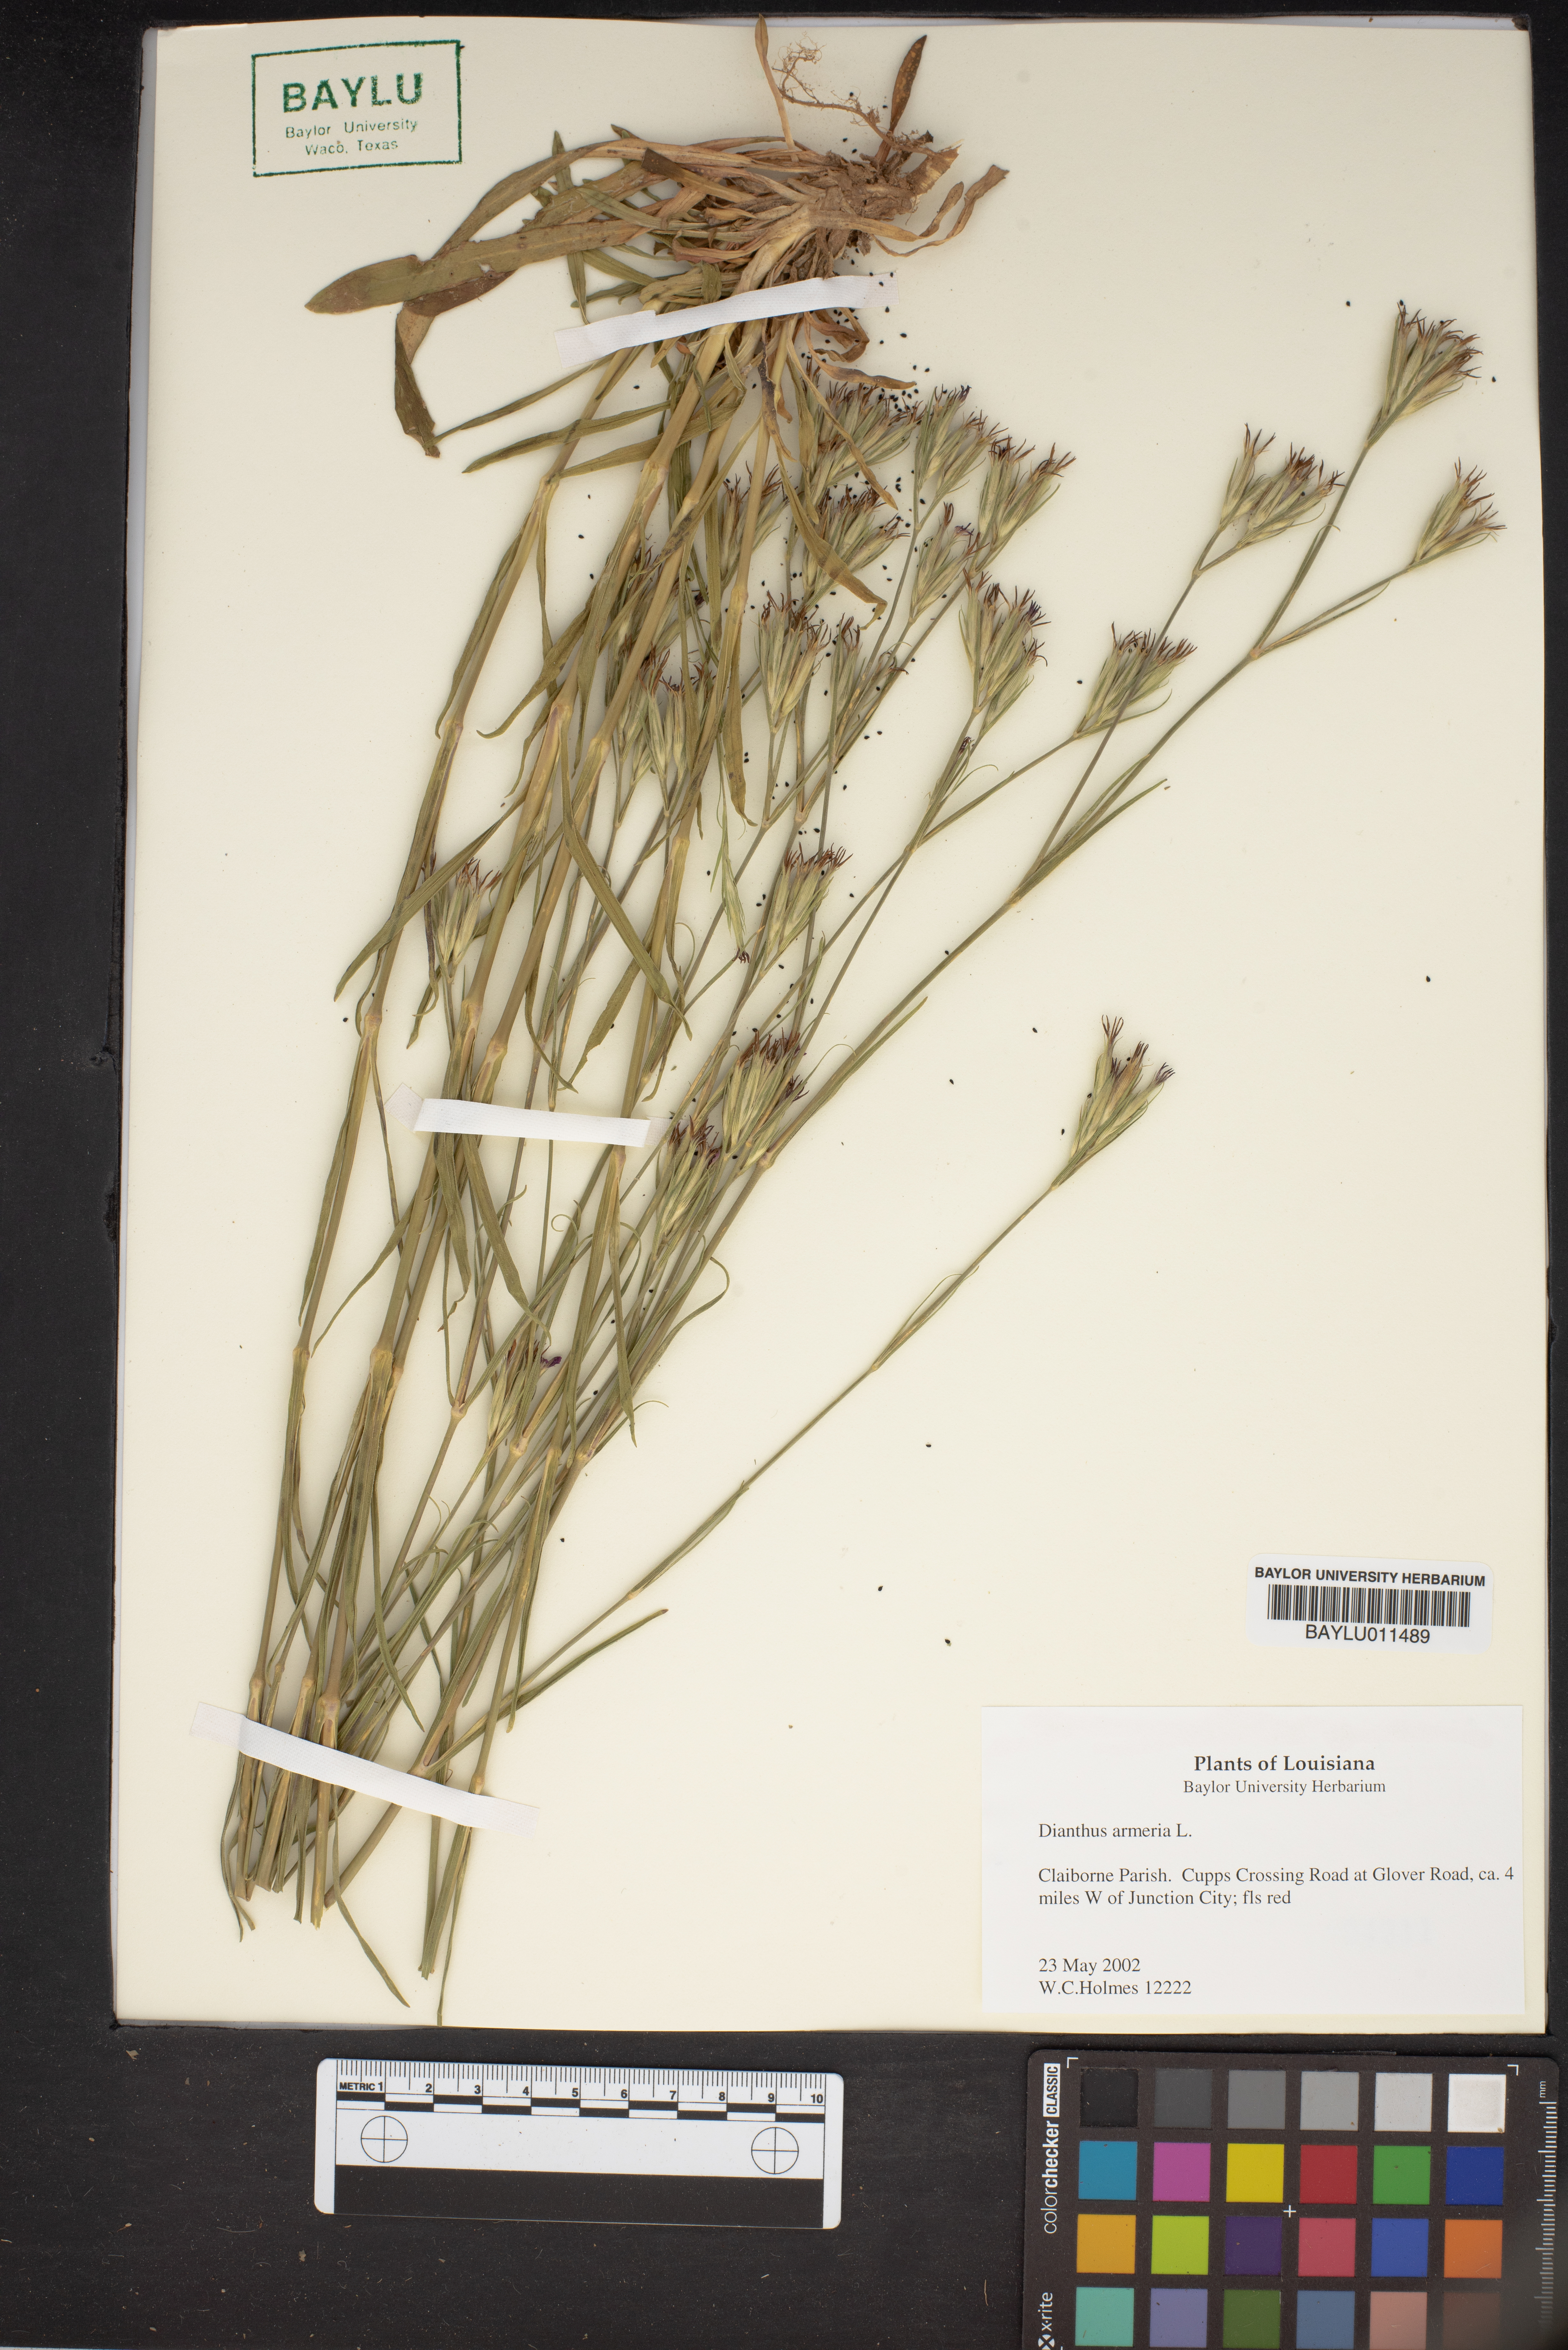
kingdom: Plantae
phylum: Tracheophyta
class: Magnoliopsida
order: Caryophyllales
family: Caryophyllaceae
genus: Dianthus
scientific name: Dianthus armeria
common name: Deptford pink
